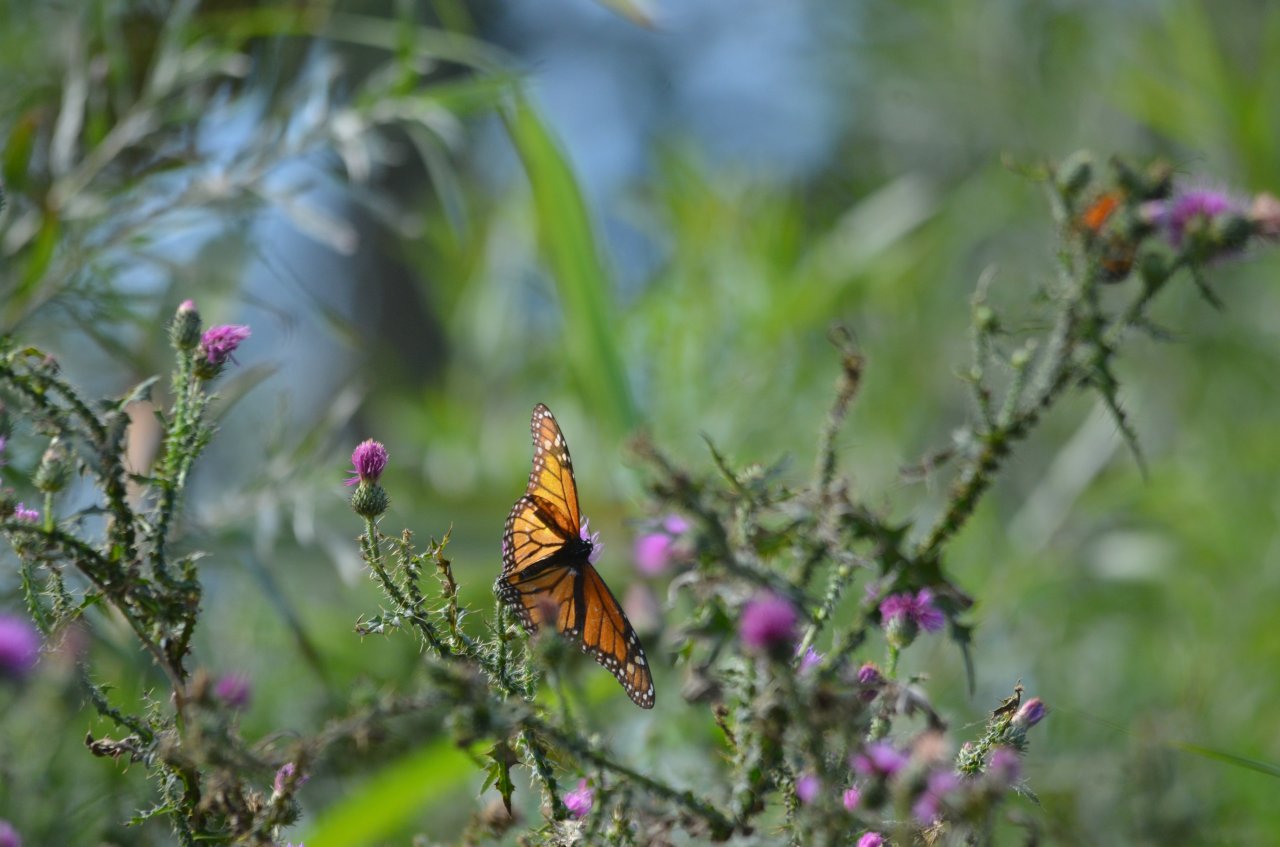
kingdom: Animalia
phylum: Arthropoda
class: Insecta
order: Lepidoptera
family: Nymphalidae
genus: Danaus
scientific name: Danaus plexippus
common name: Monarch
